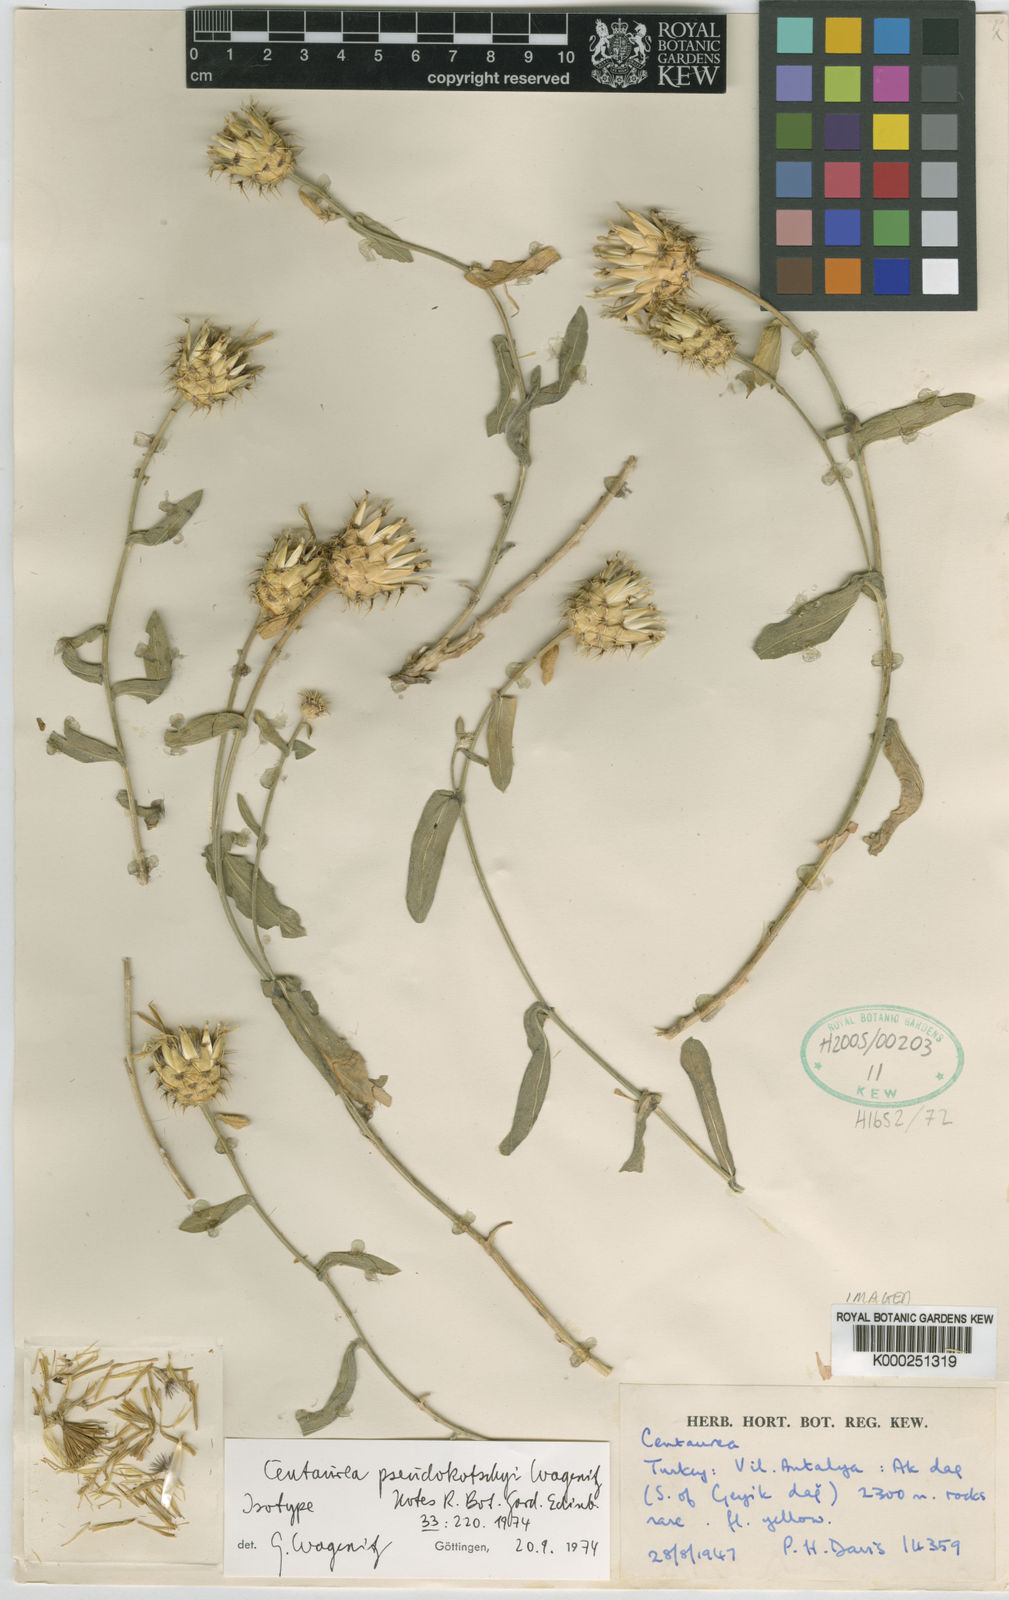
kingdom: Plantae
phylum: Tracheophyta
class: Magnoliopsida
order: Asterales
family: Asteraceae
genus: Centaurea
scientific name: Centaurea pseudokotschyi
